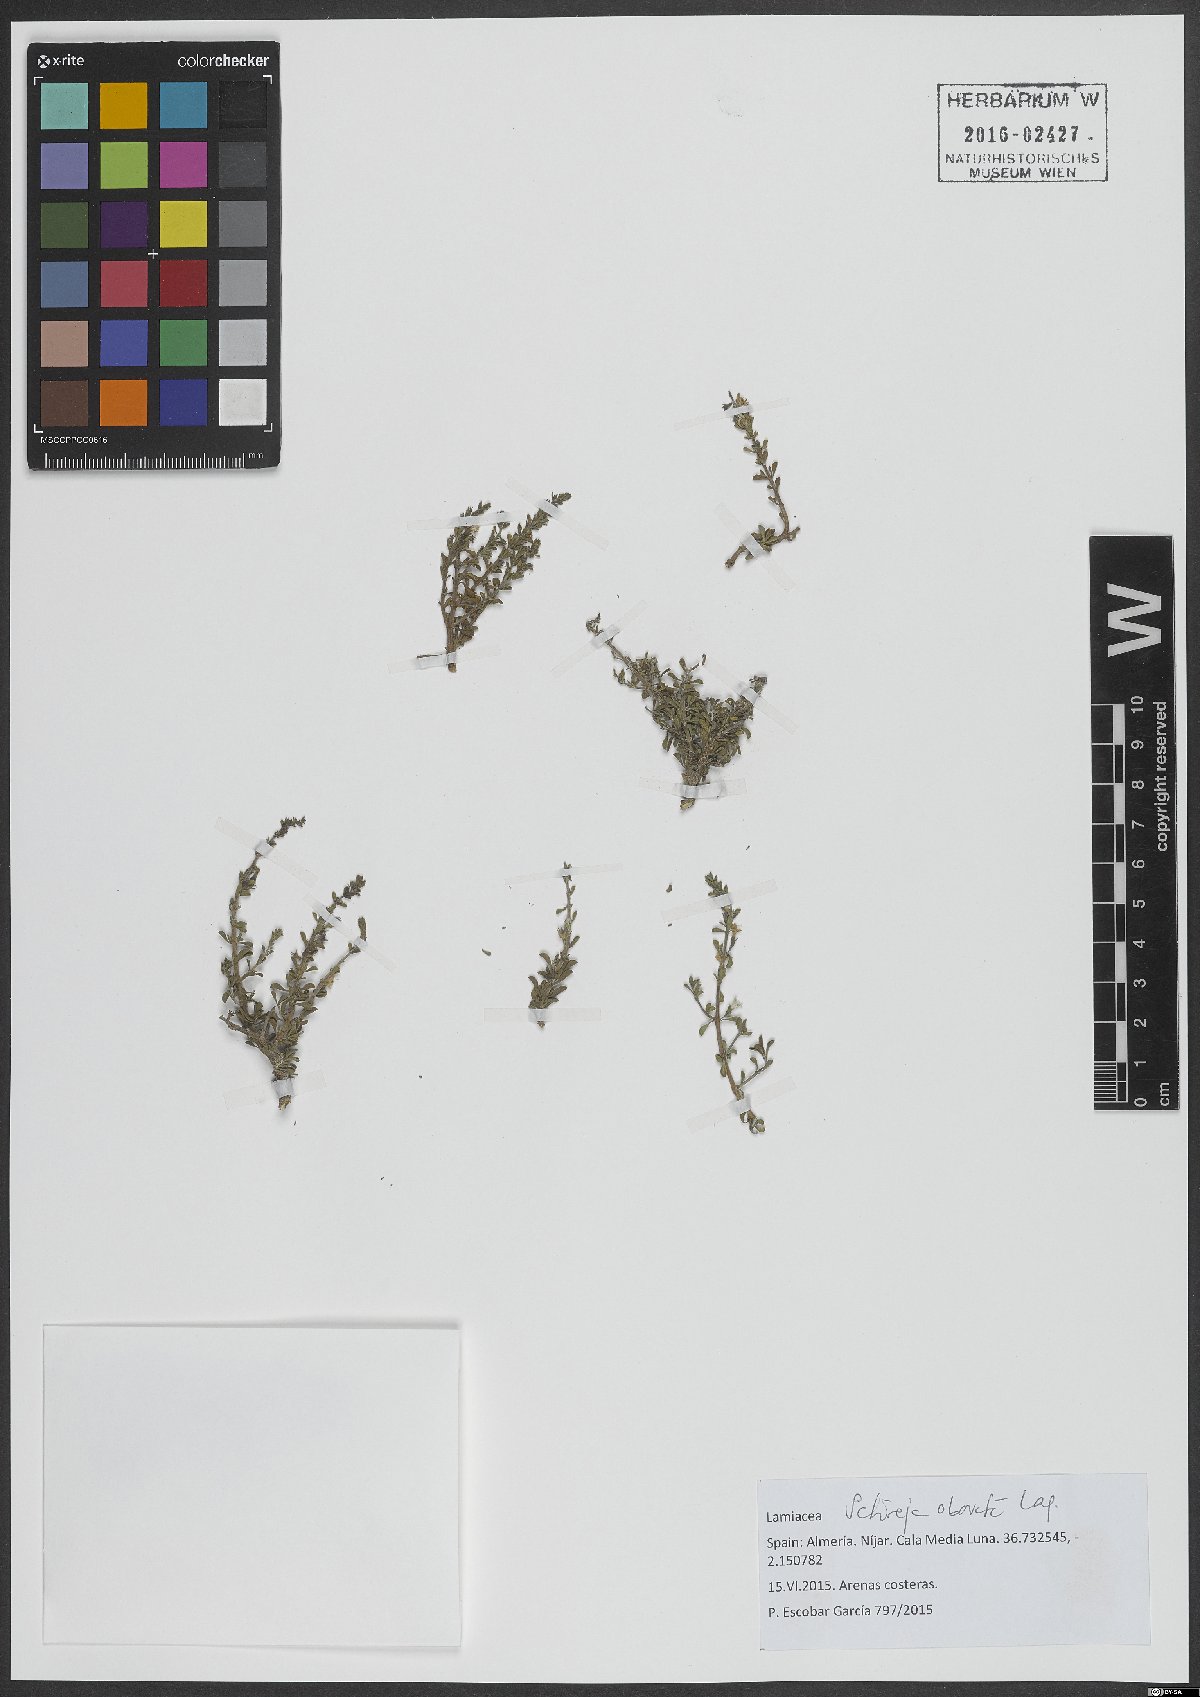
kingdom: Plantae
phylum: Tracheophyta
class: Magnoliopsida
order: Lamiales
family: Lamiaceae
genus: Satureja
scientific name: Satureja cuneifolia
